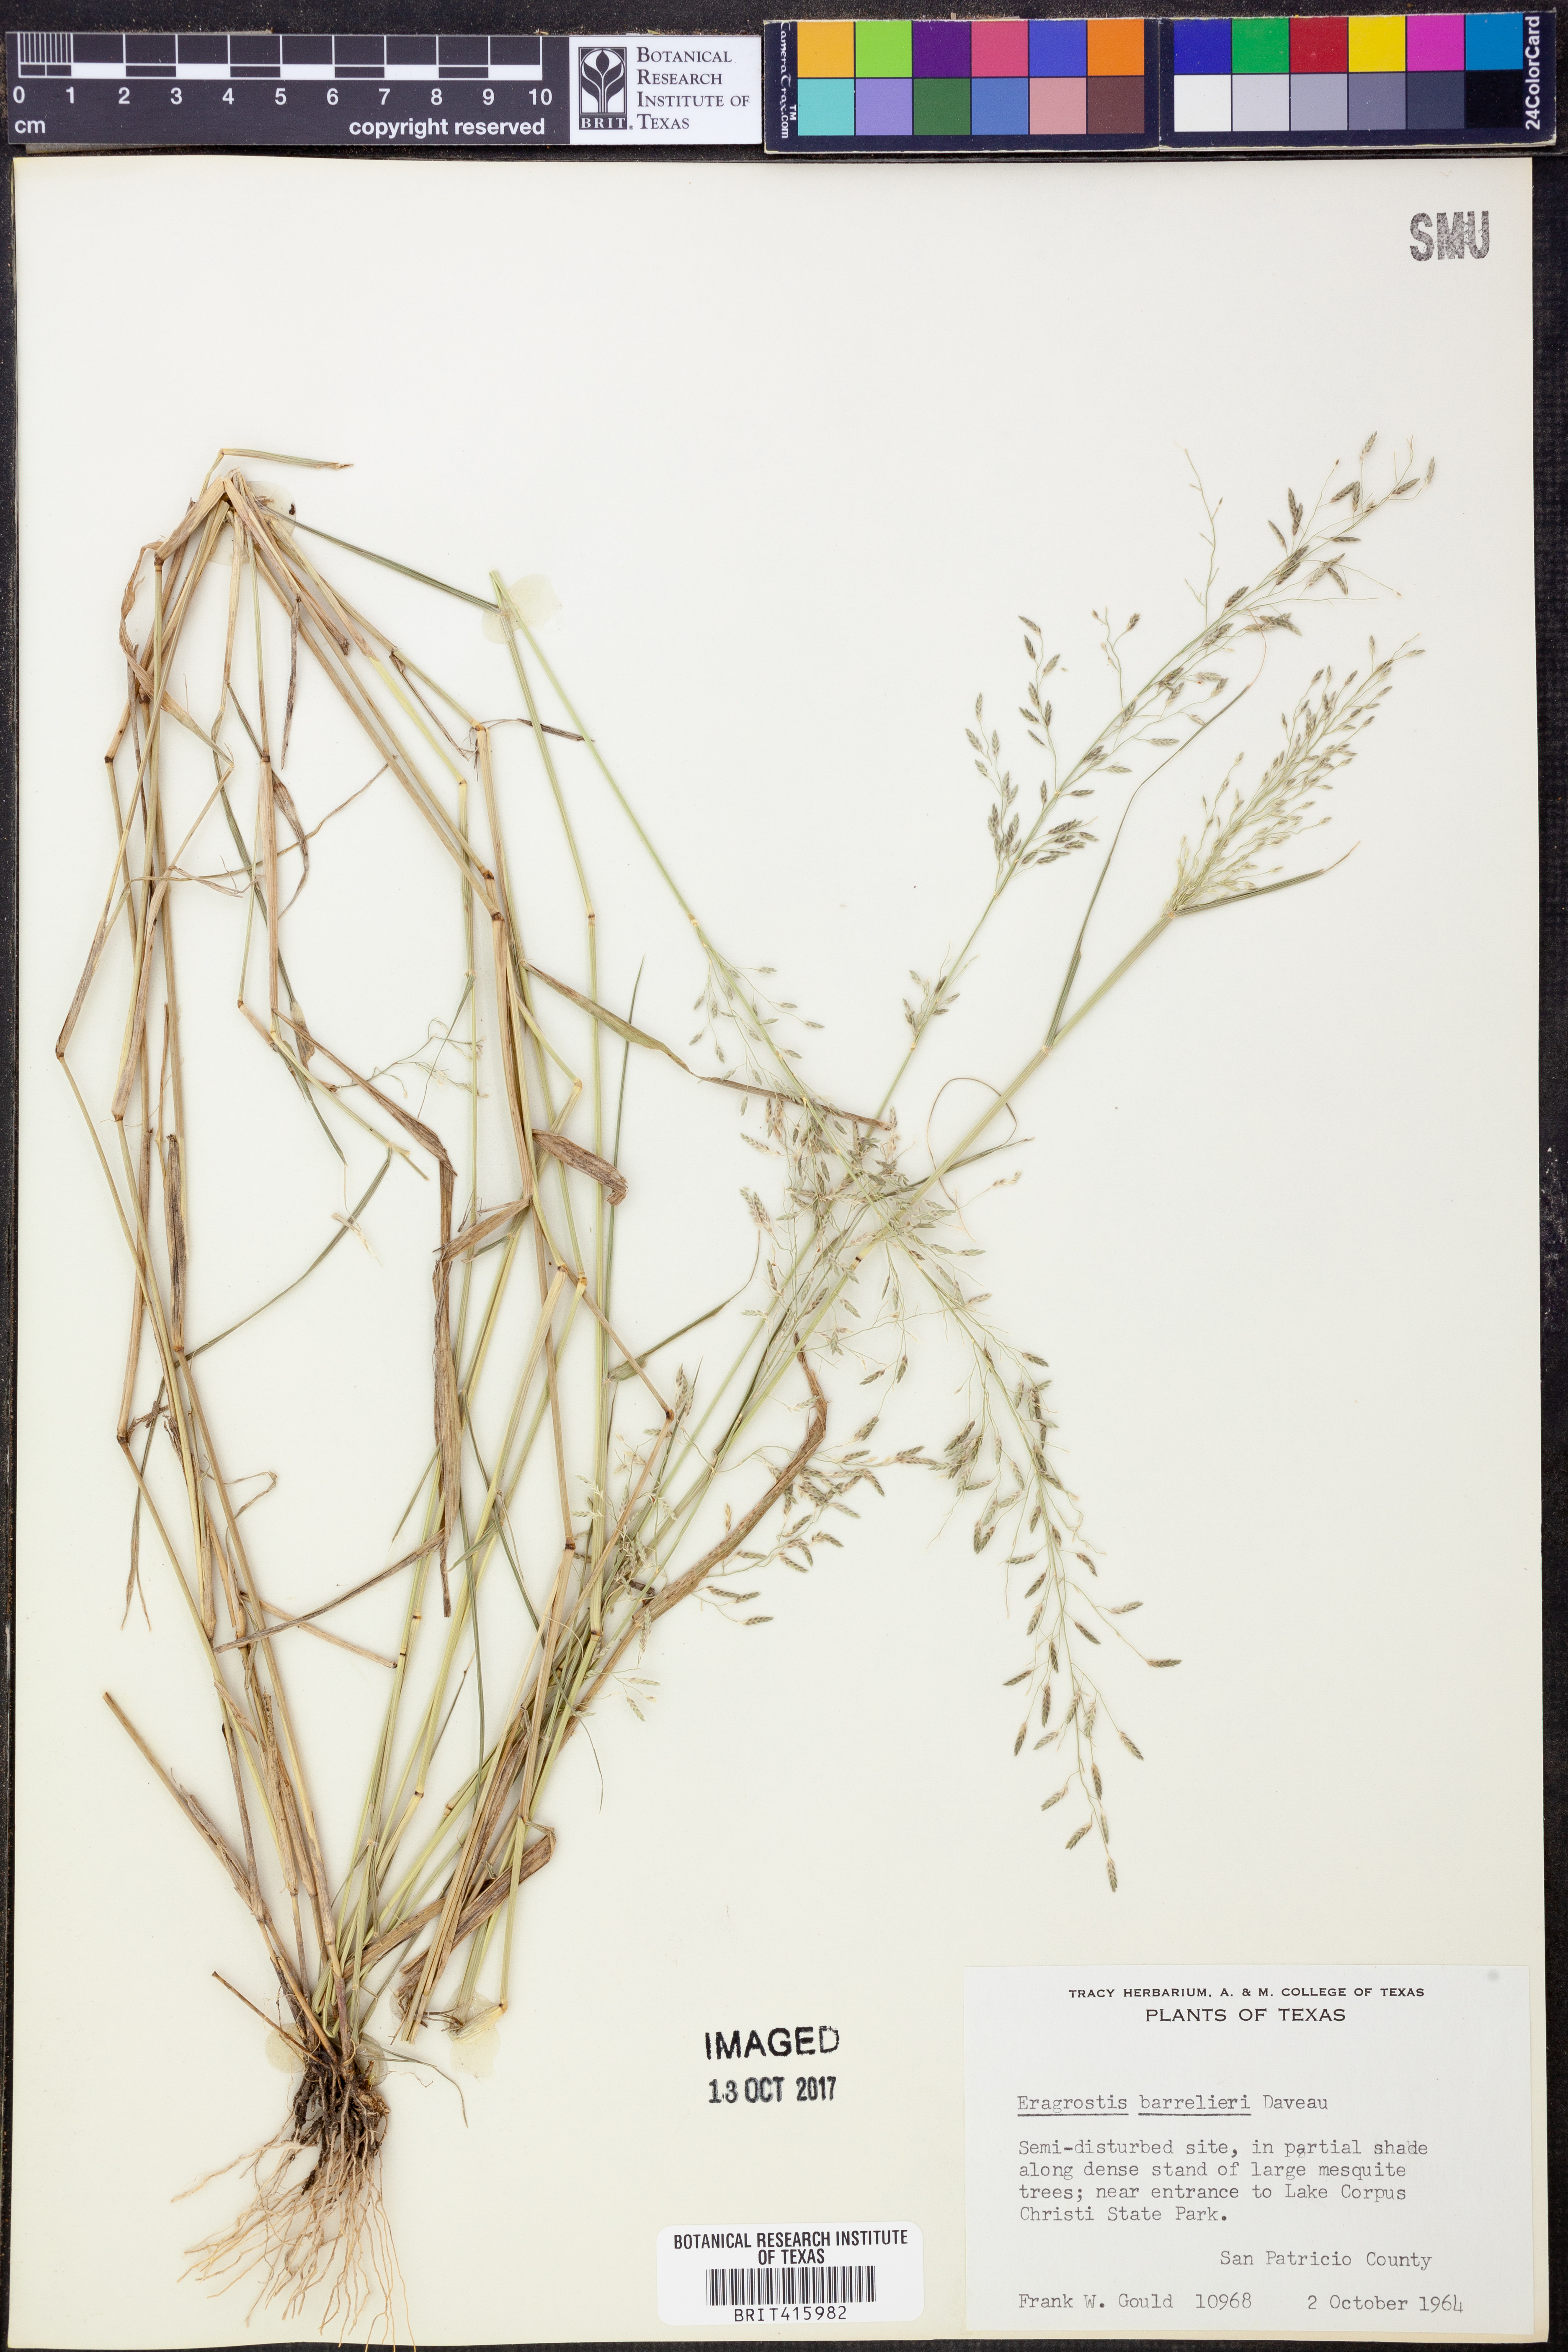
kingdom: Plantae
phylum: Tracheophyta
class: Liliopsida
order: Poales
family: Poaceae
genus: Eragrostis
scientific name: Eragrostis barrelieri
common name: Mediterranean lovegrass
